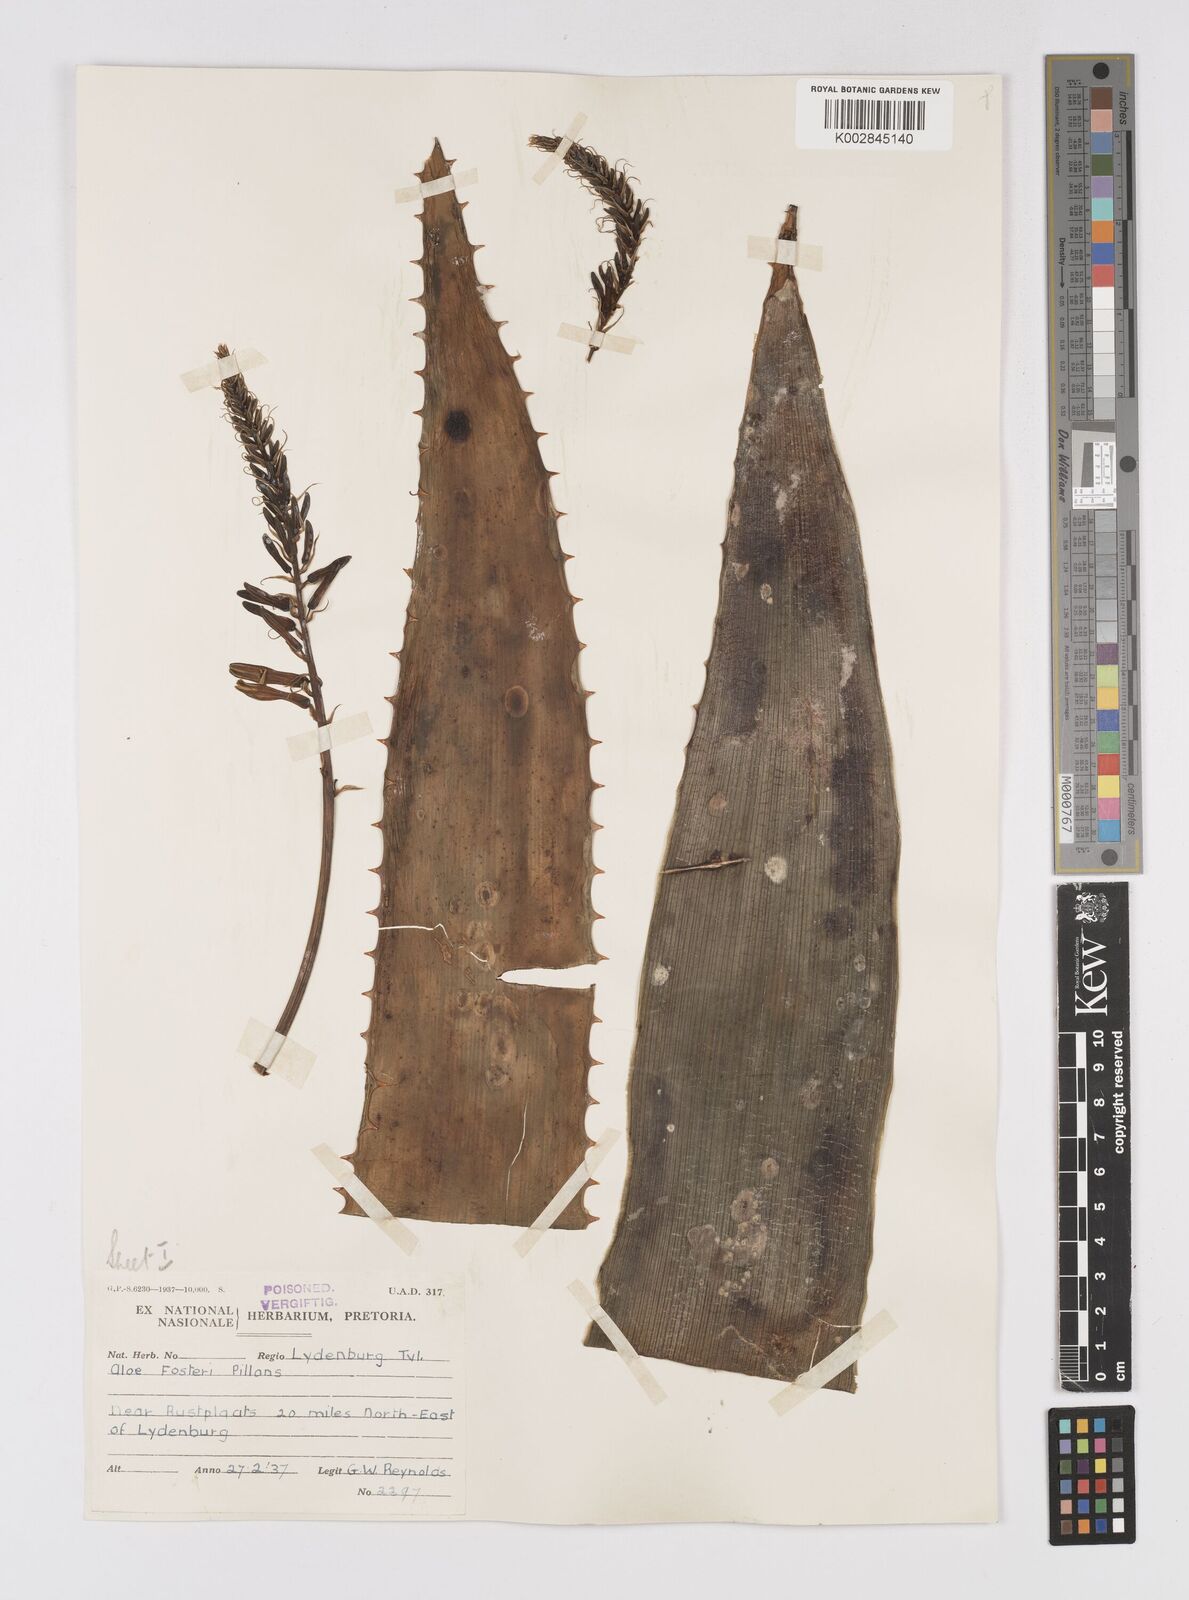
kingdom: Plantae
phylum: Tracheophyta
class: Liliopsida
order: Asparagales
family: Asphodelaceae
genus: Aloe
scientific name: Aloe fosteri
